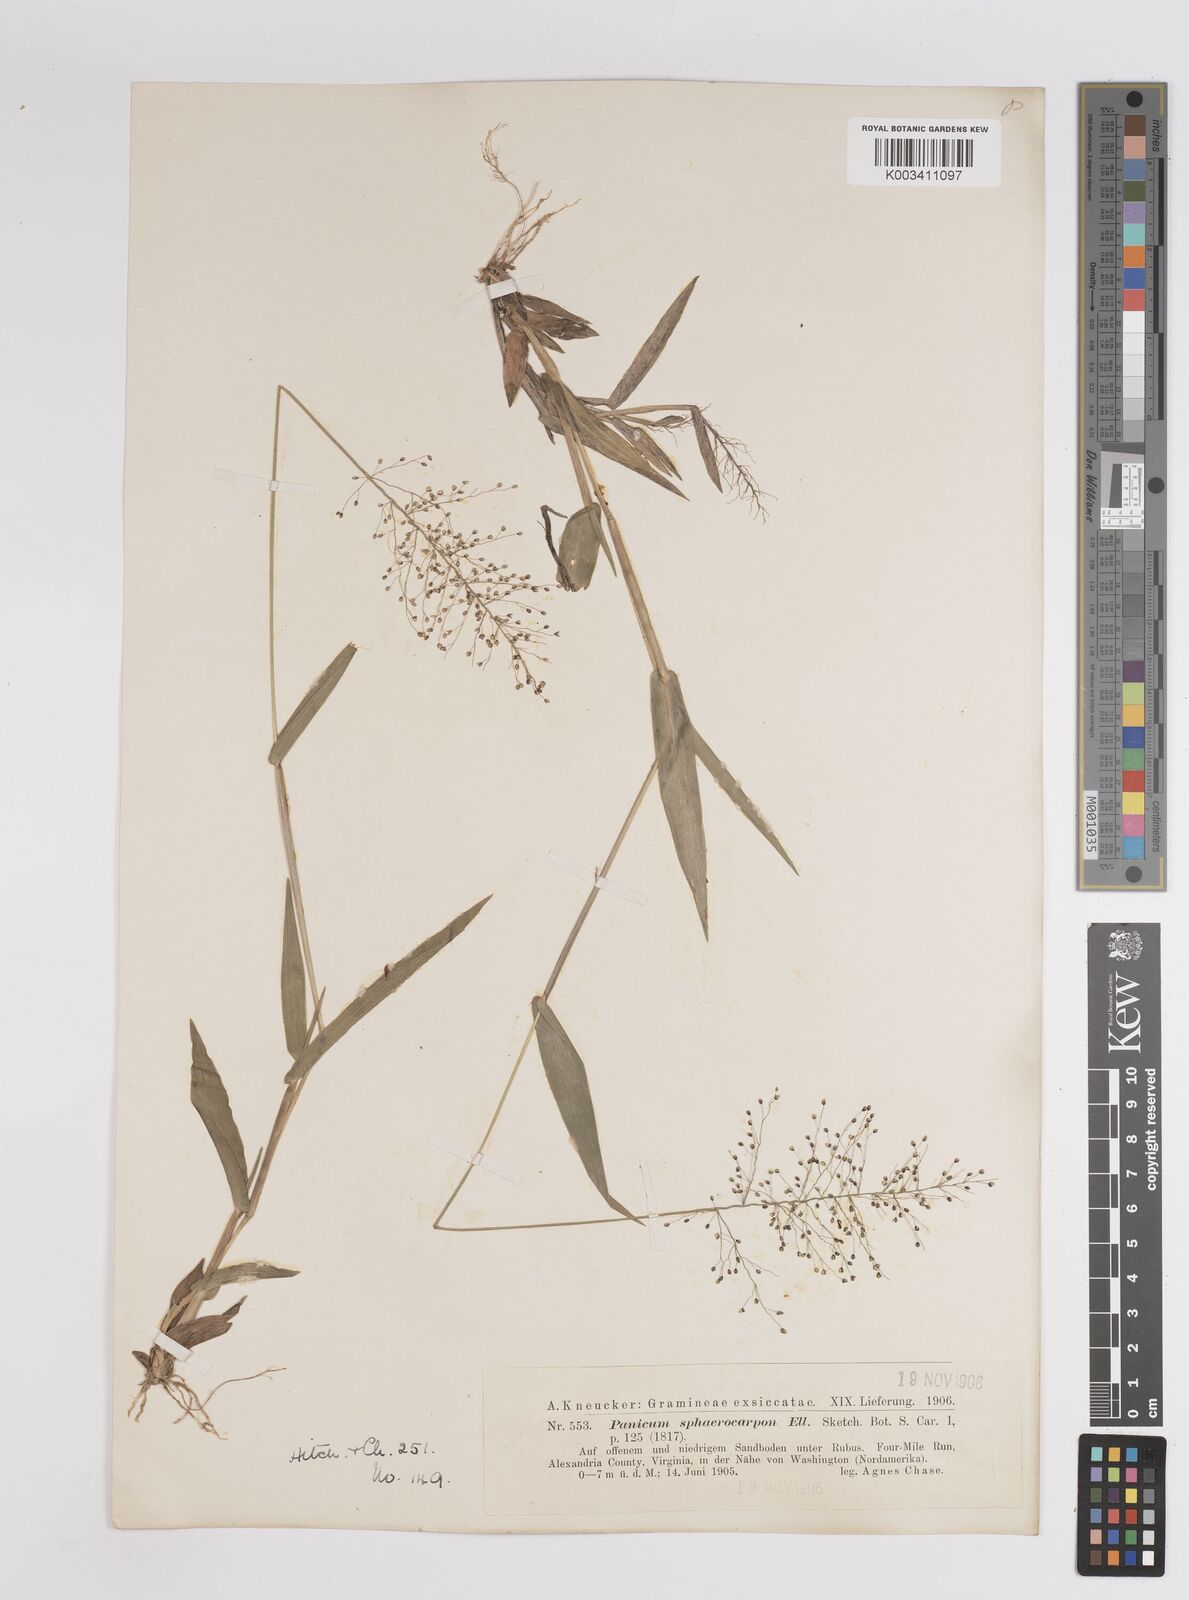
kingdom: Plantae
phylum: Tracheophyta
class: Liliopsida
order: Poales
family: Poaceae
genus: Dichanthelium
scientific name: Dichanthelium sphaerocarpon
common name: Round-fruited panicgrass
